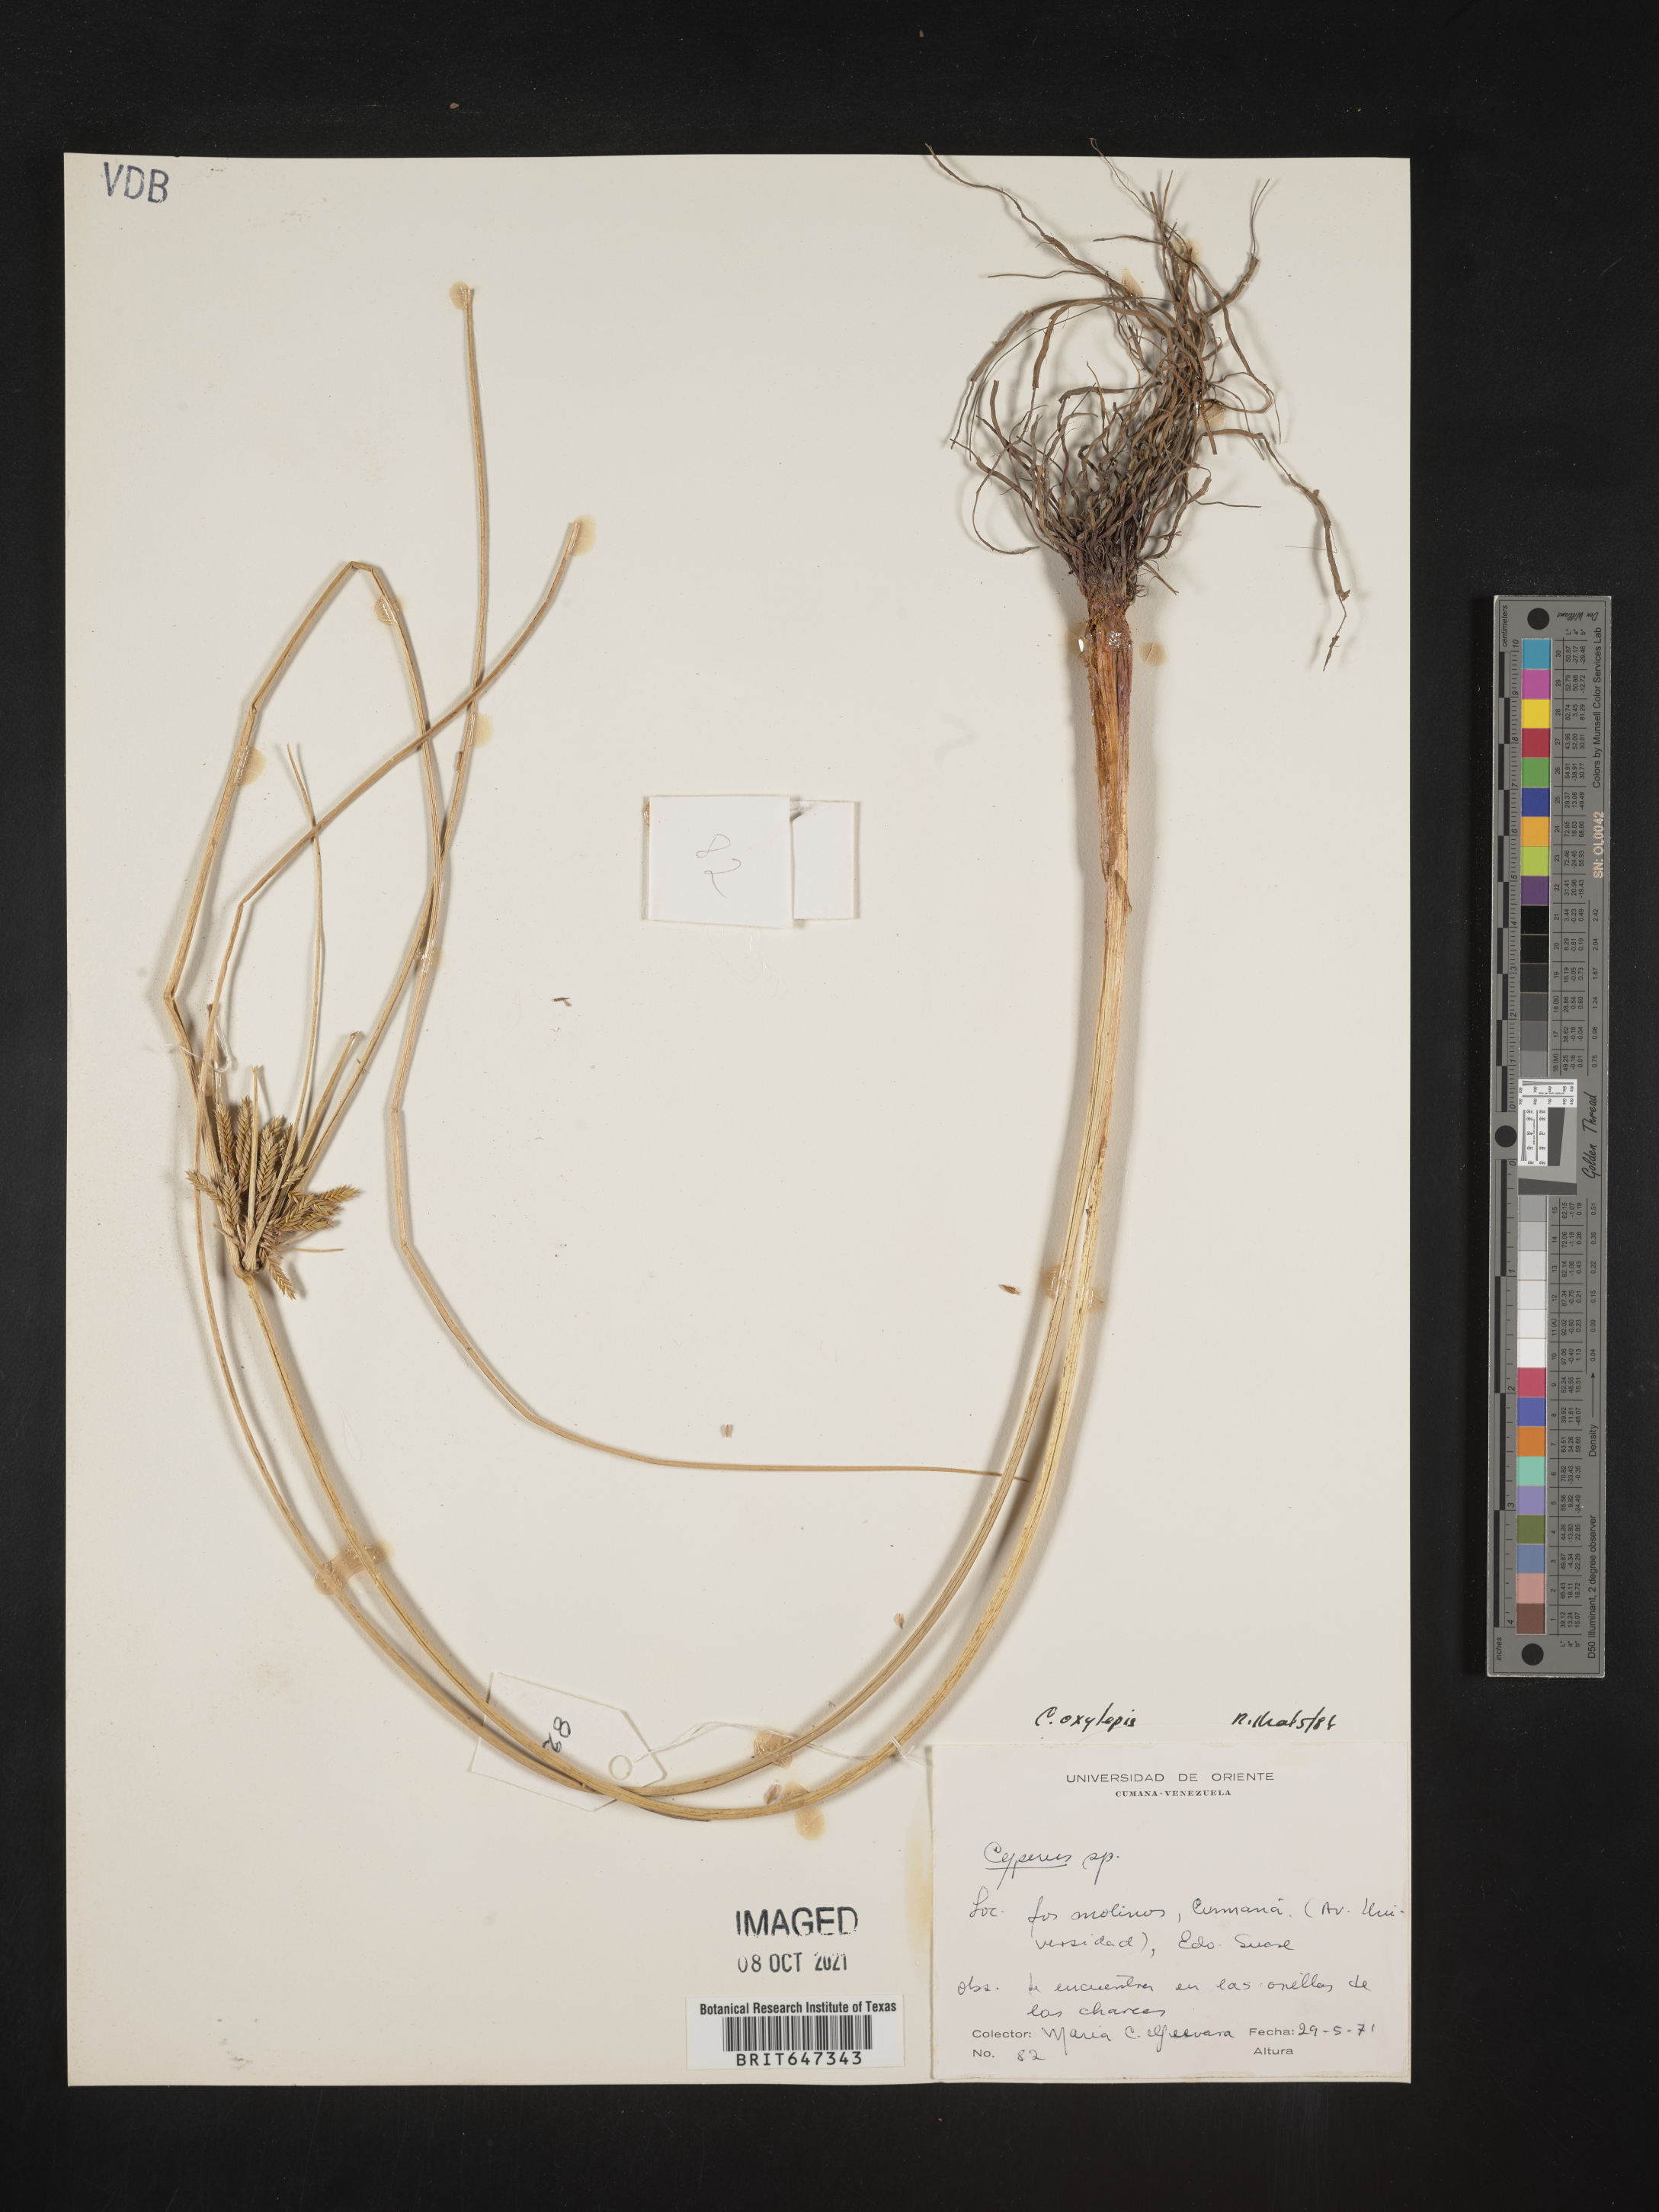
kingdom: Plantae
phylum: Tracheophyta
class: Liliopsida
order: Poales
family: Cyperaceae
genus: Cyperus
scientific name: Cyperus oxylepis
